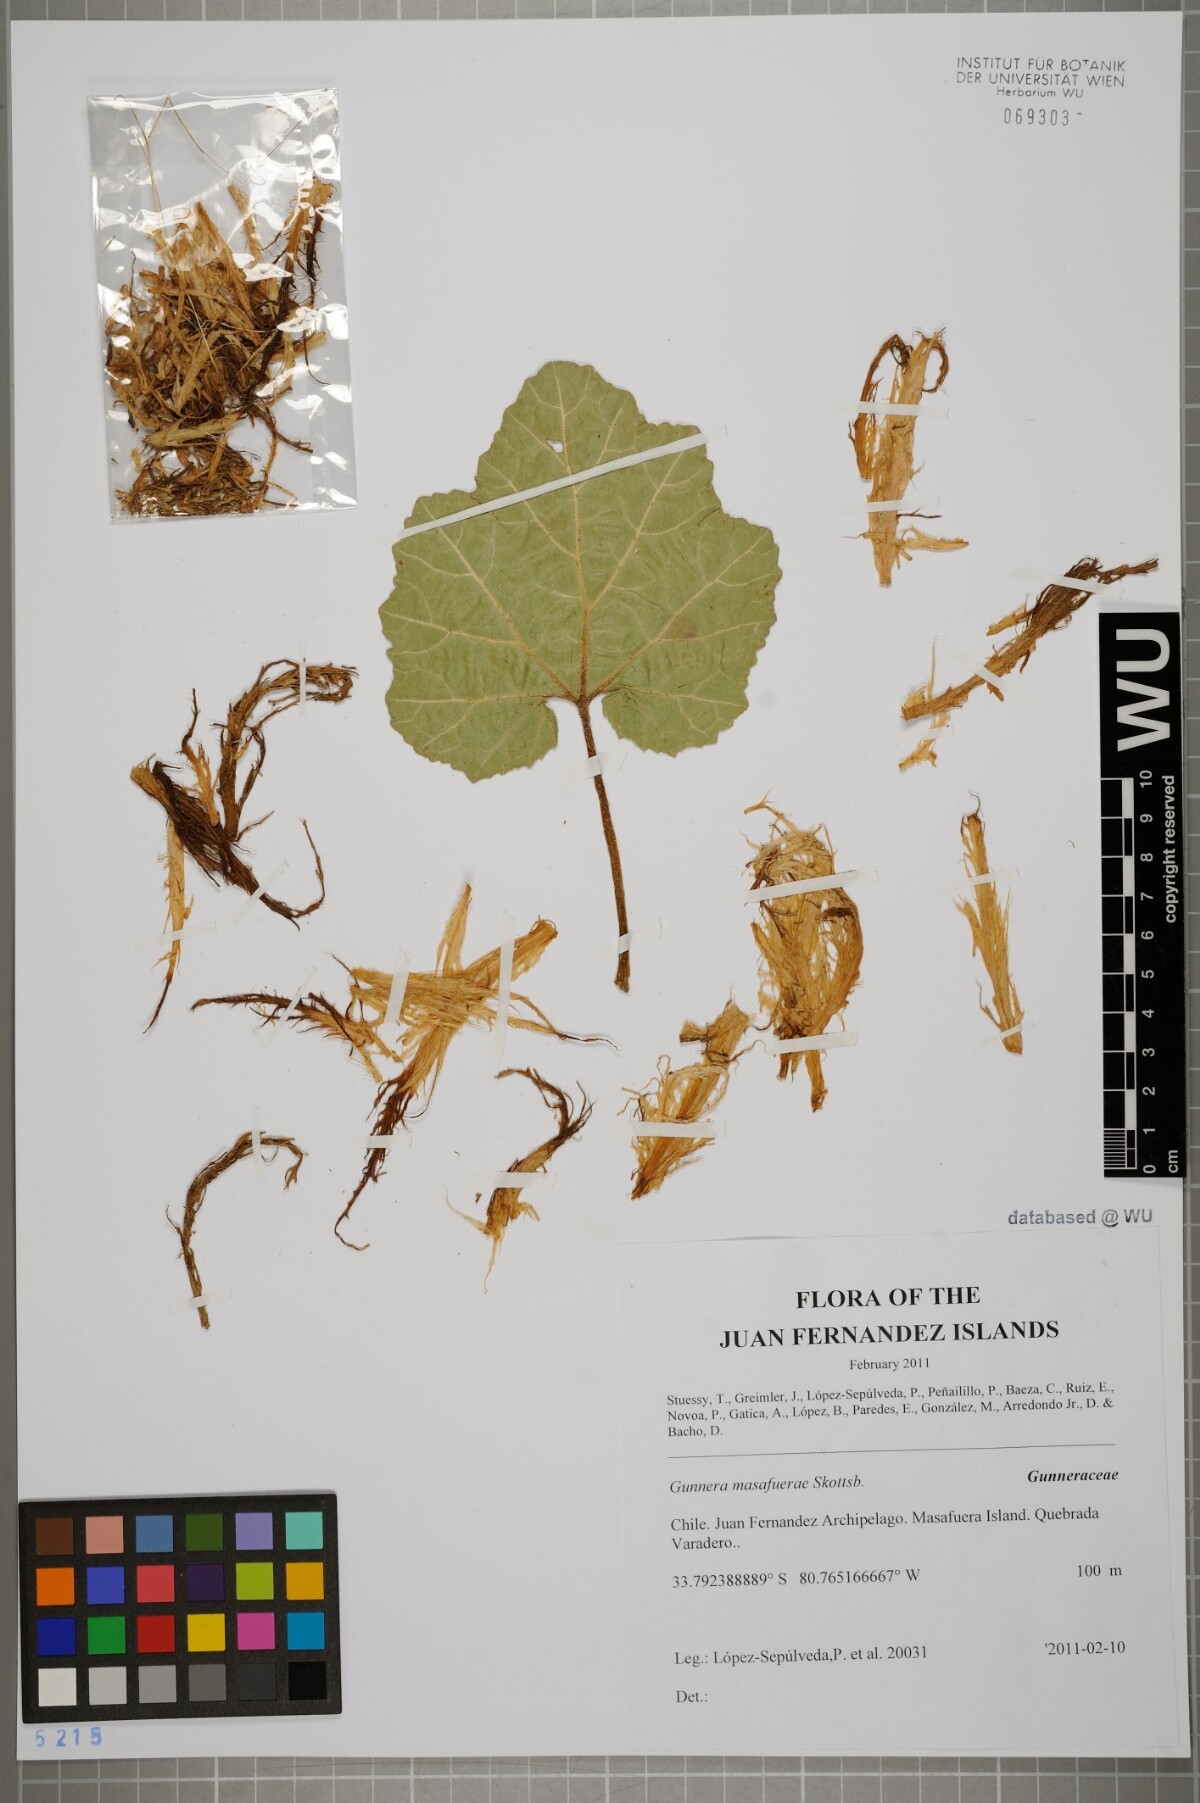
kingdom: Plantae
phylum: Tracheophyta
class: Magnoliopsida
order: Gunnerales
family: Gunneraceae
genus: Gunnera
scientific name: Gunnera masafuerae
